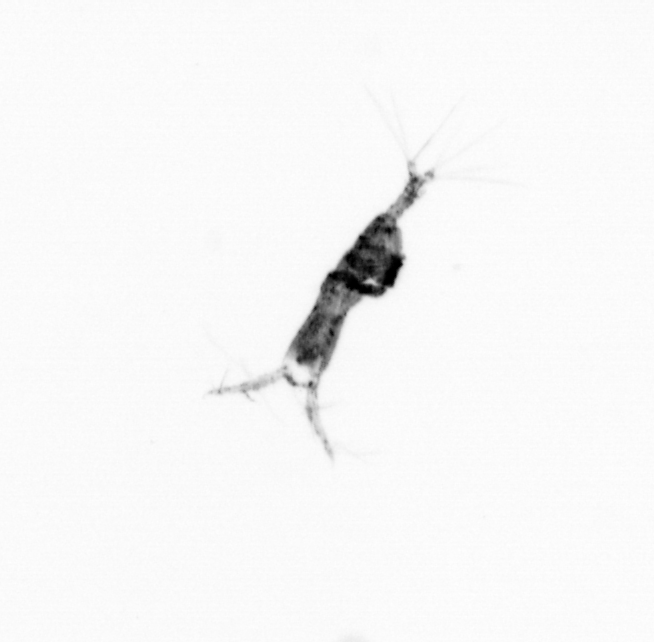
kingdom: Animalia
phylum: Arthropoda
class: Copepoda
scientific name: Copepoda
